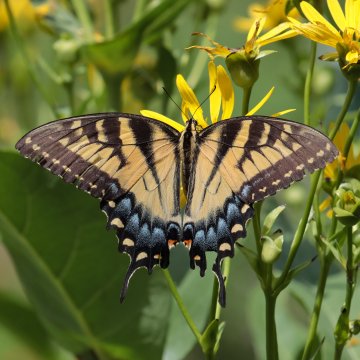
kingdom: Animalia
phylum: Arthropoda
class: Insecta
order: Lepidoptera
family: Papilionidae
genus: Pterourus
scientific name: Pterourus glaucus
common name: Eastern Tiger Swallowtail
